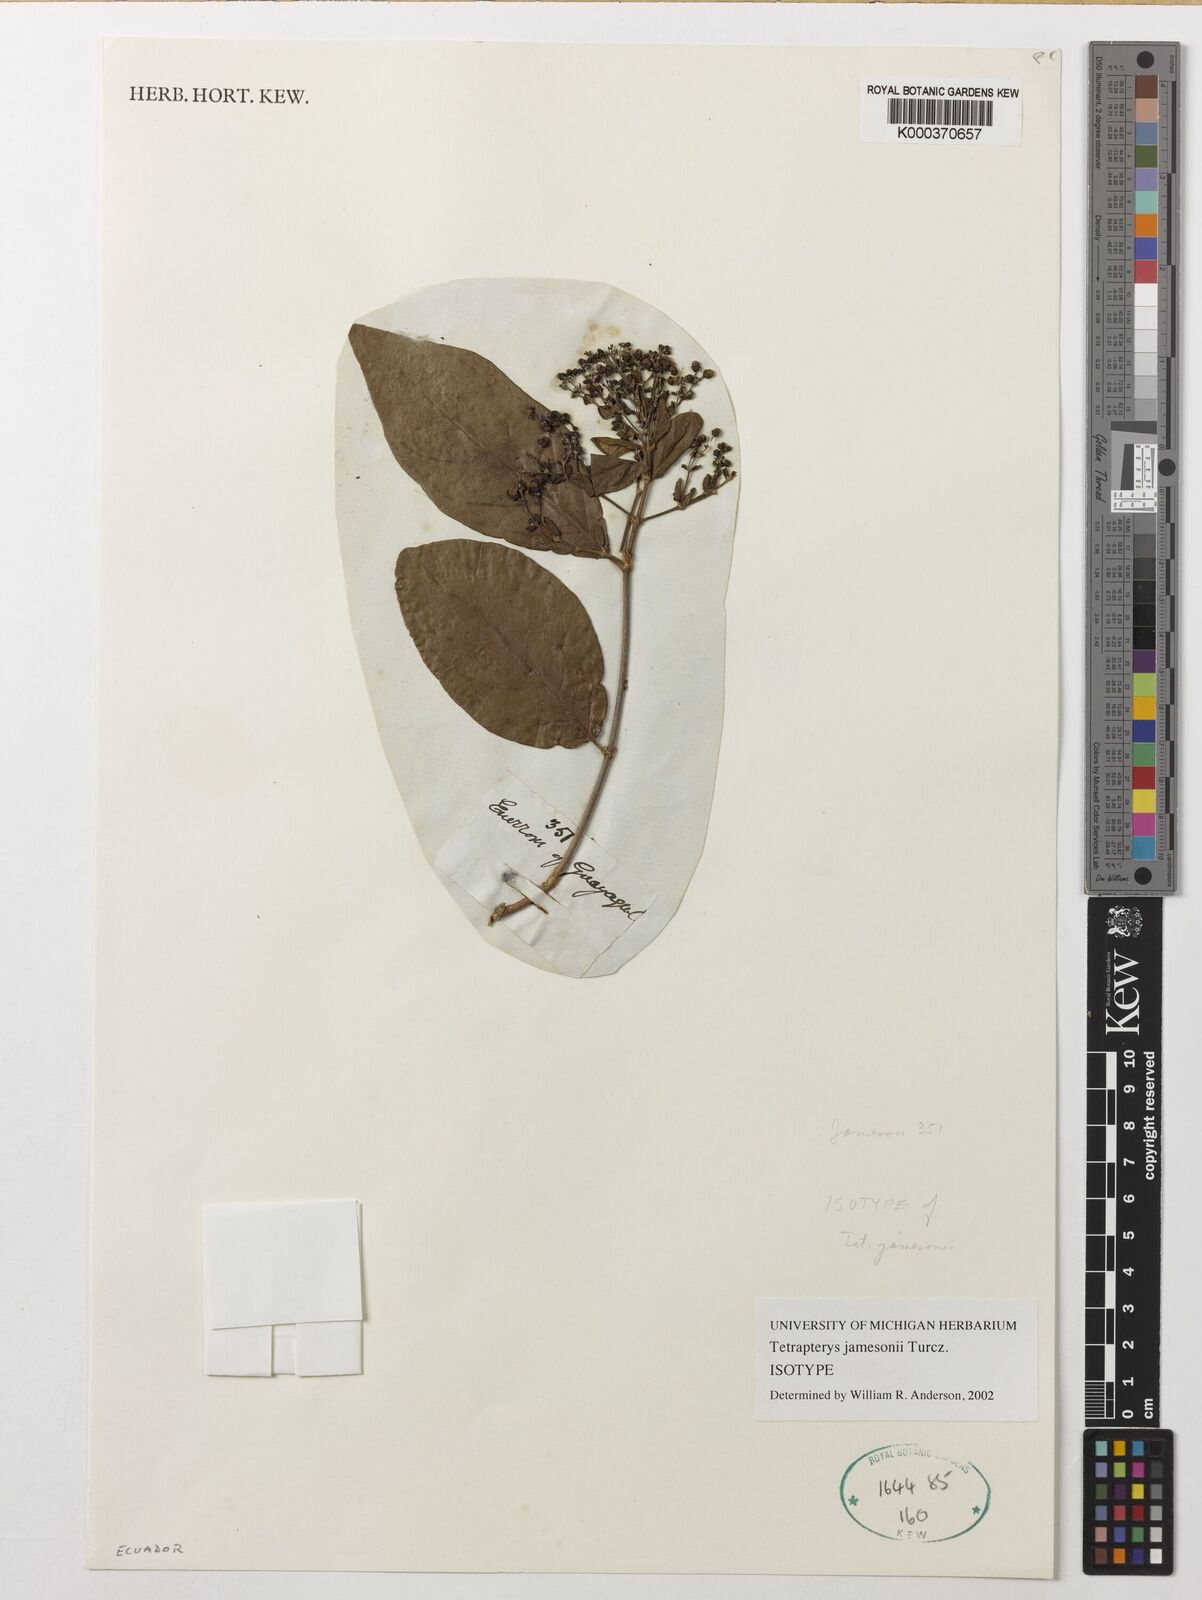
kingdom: Plantae
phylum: Tracheophyta
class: Magnoliopsida
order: Malpighiales
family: Malpighiaceae
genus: Tetrapterys
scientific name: Tetrapterys jamesonii
